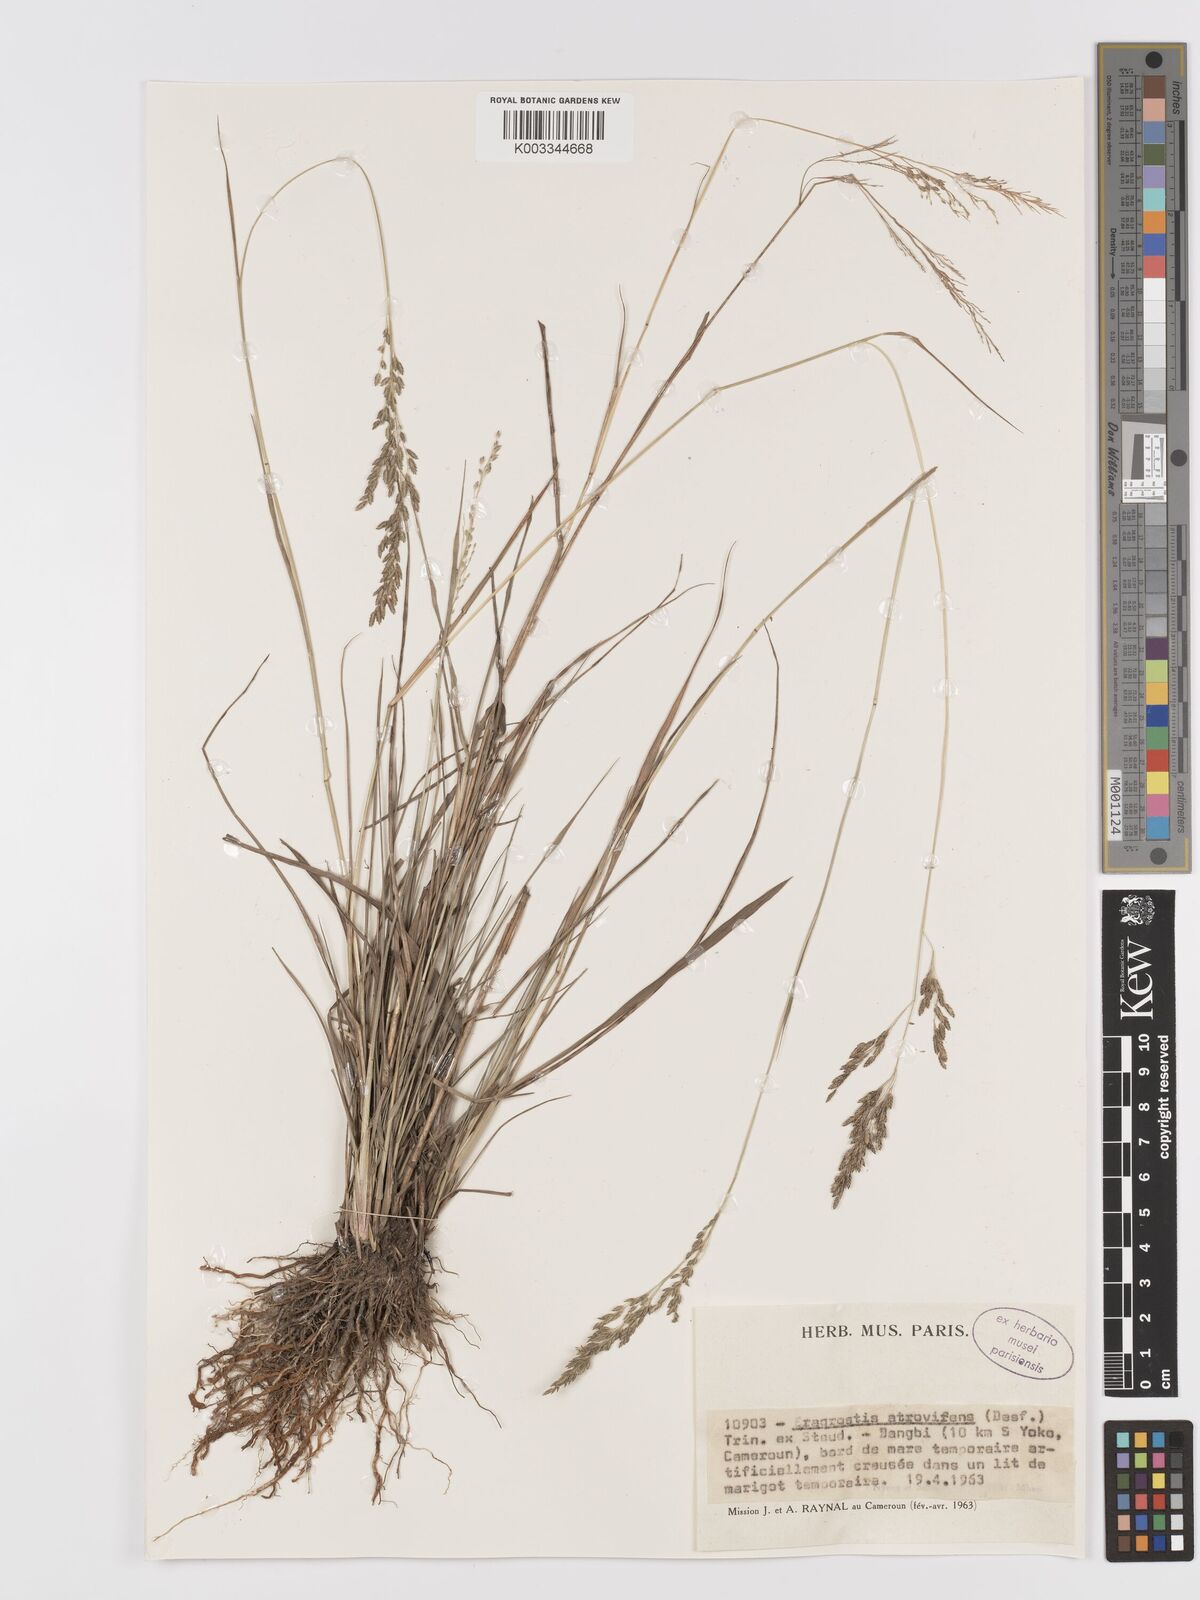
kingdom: Plantae
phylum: Tracheophyta
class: Liliopsida
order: Poales
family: Poaceae
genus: Eragrostis
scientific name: Eragrostis atrovirens
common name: Thalia lovegrass
